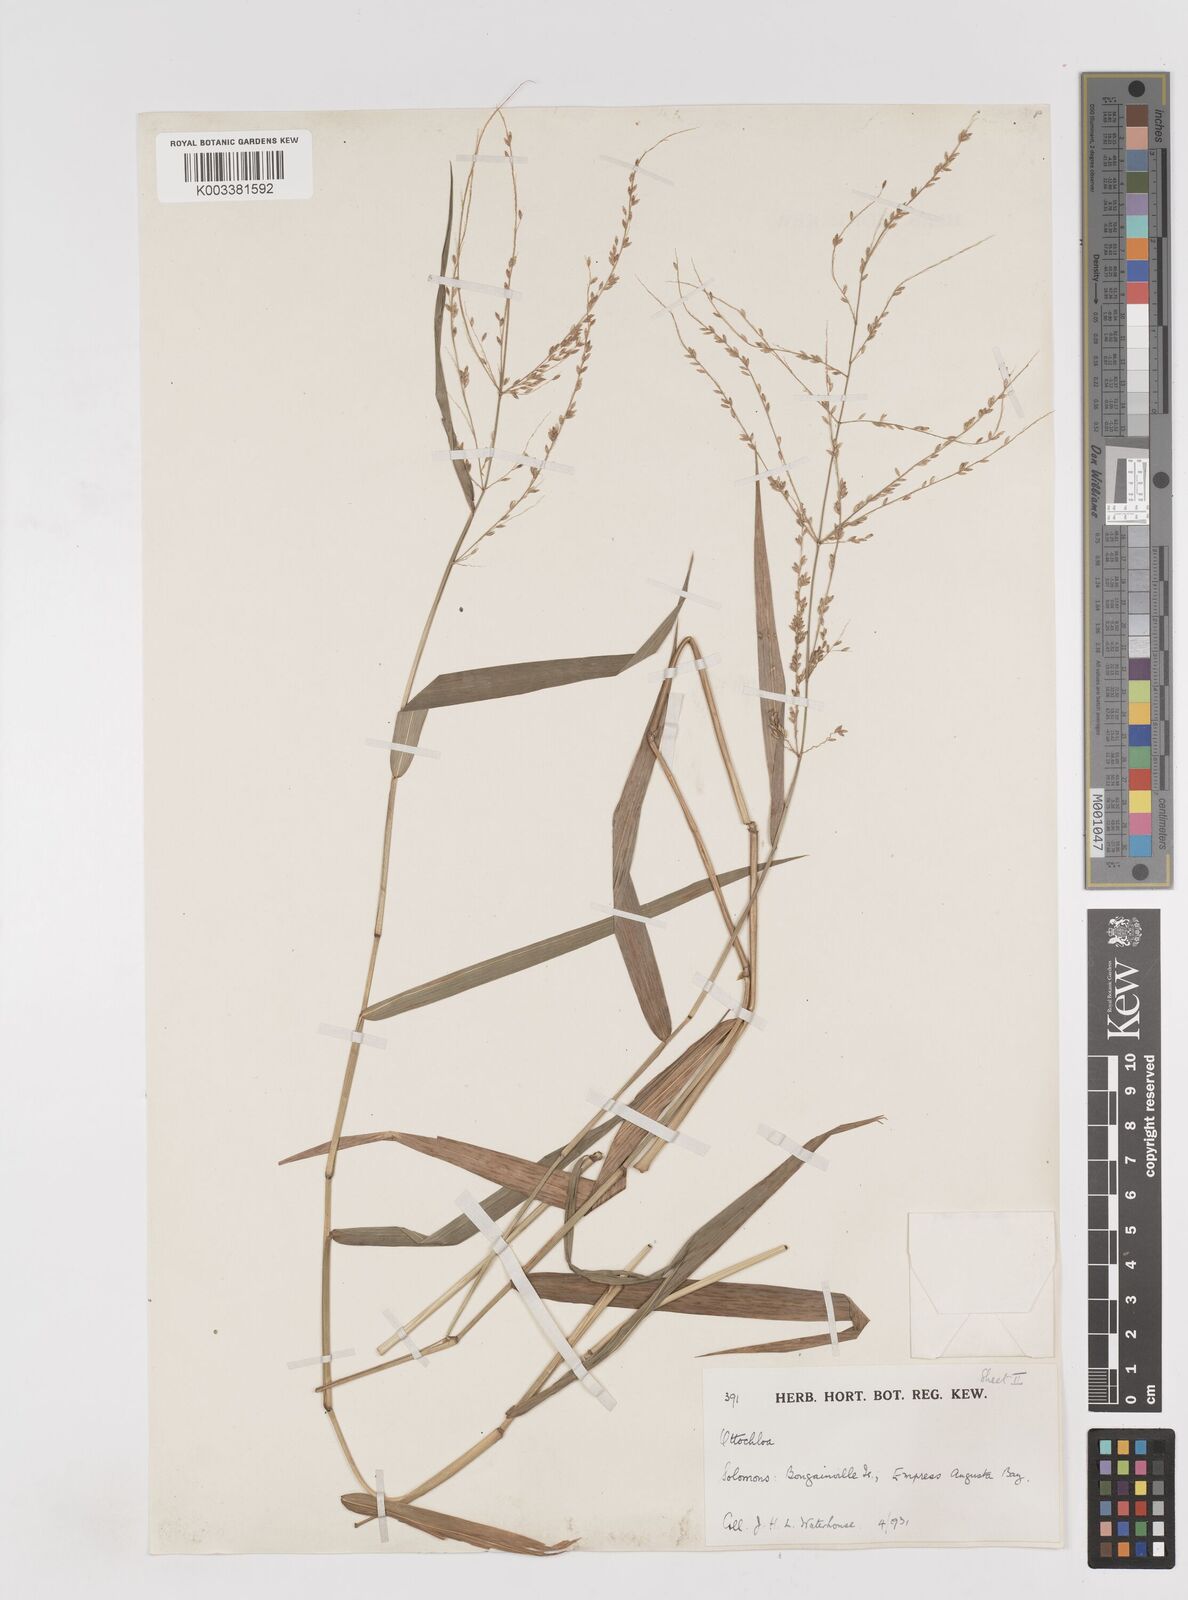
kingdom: Plantae
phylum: Tracheophyta
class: Liliopsida
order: Poales
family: Poaceae
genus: Ottochloa
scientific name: Ottochloa nodosa
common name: Slender-panic grass
